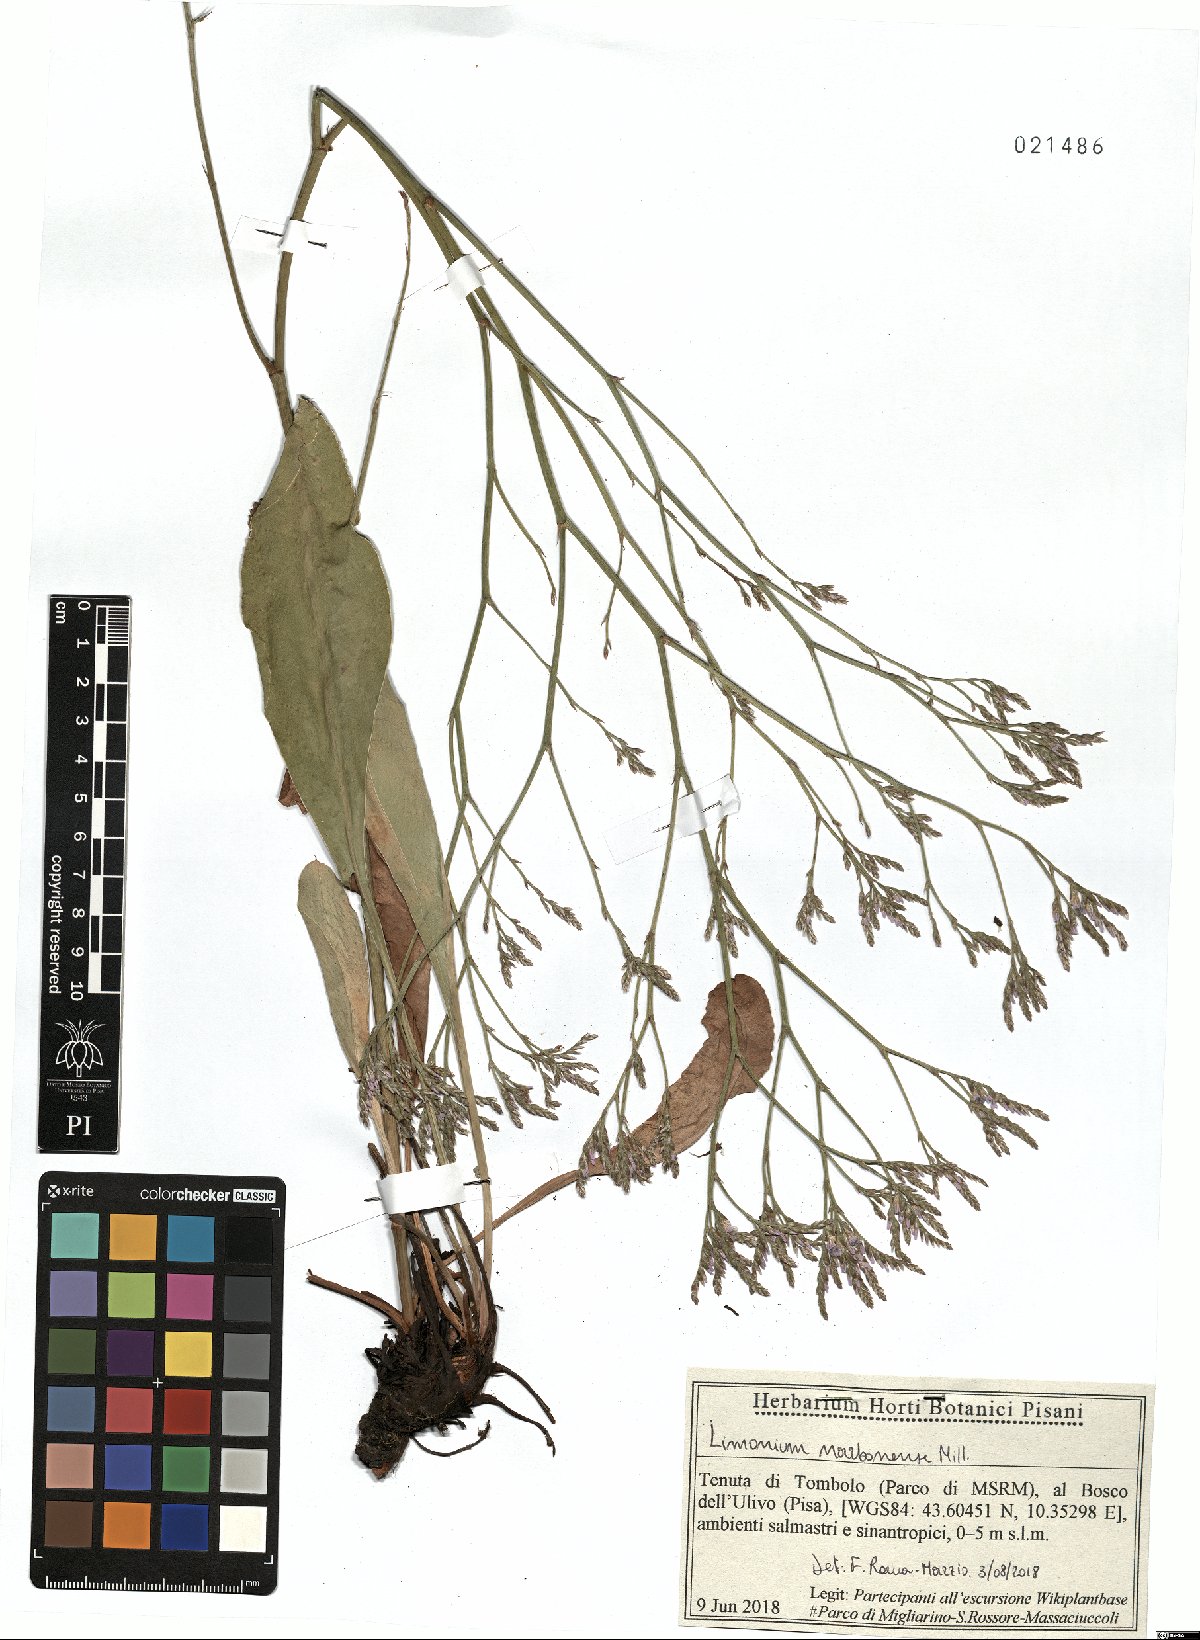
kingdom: Plantae
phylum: Tracheophyta
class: Magnoliopsida
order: Caryophyllales
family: Plumbaginaceae
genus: Limonium
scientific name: Limonium narbonense
